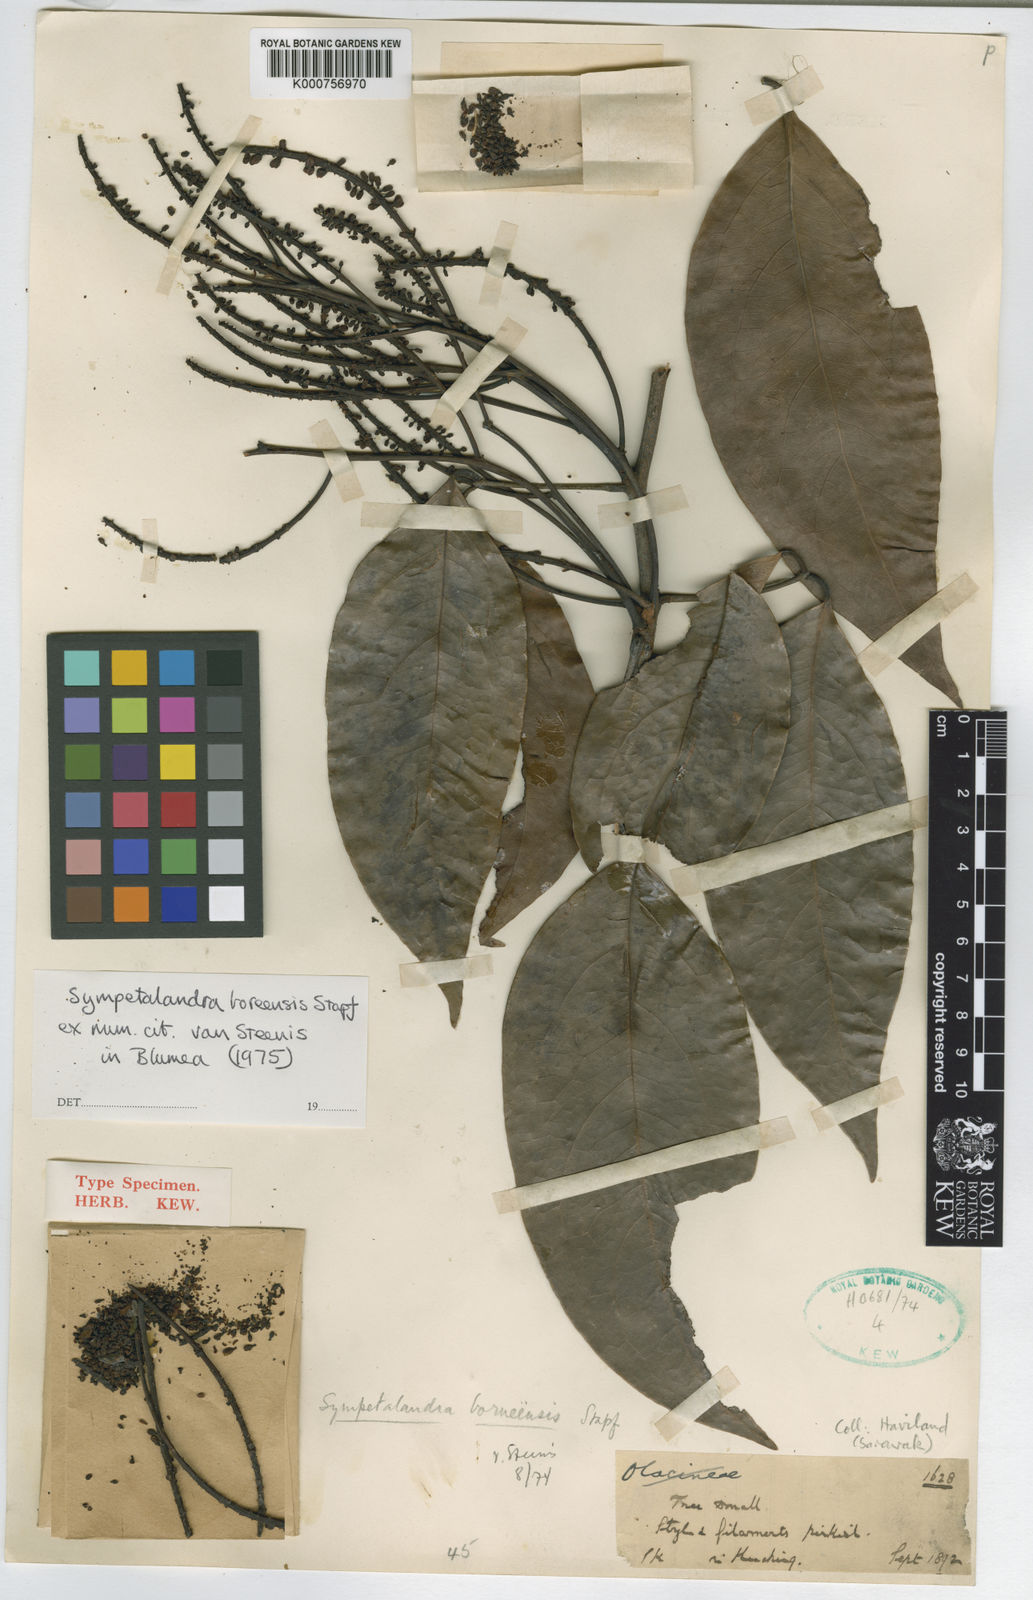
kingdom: Plantae
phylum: Tracheophyta
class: Magnoliopsida
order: Fabales
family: Fabaceae
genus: Sympetalandra
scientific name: Sympetalandra borneensis
